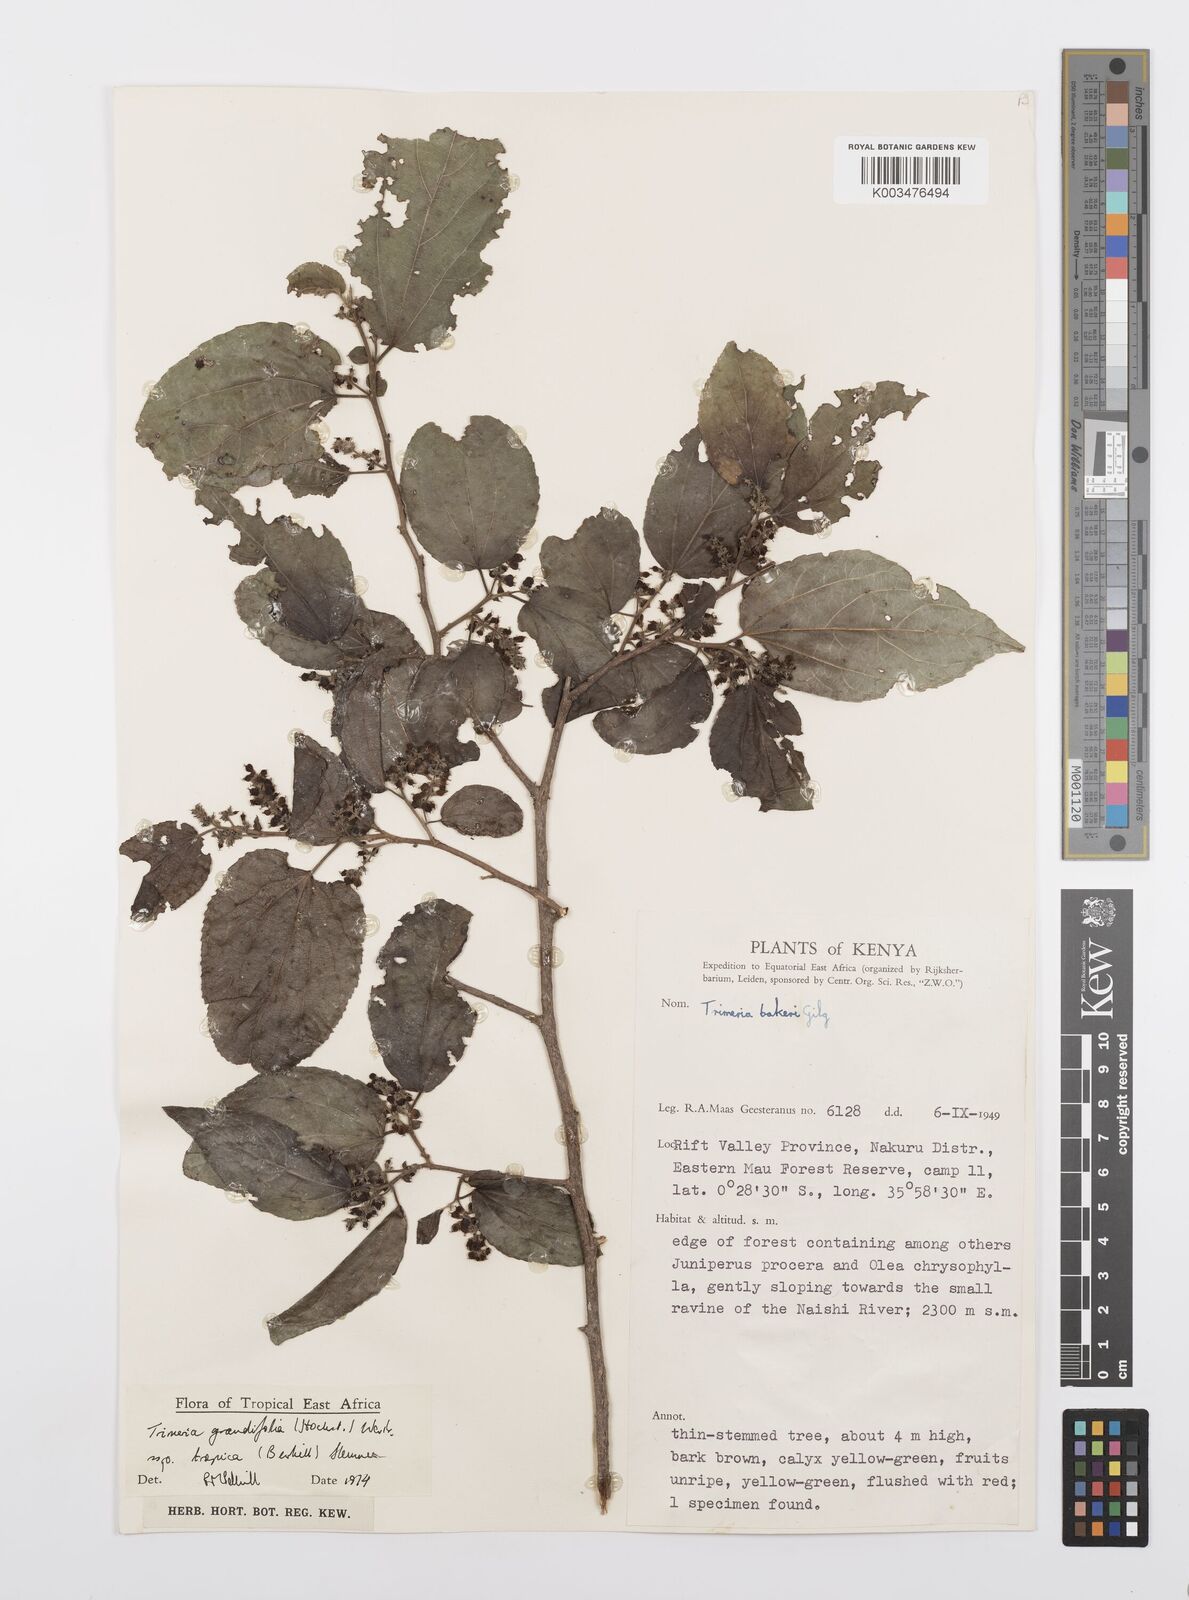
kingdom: Plantae
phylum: Tracheophyta
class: Magnoliopsida
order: Malpighiales
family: Salicaceae
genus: Trimeria
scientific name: Trimeria grandifolia
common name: Wild mulberry
